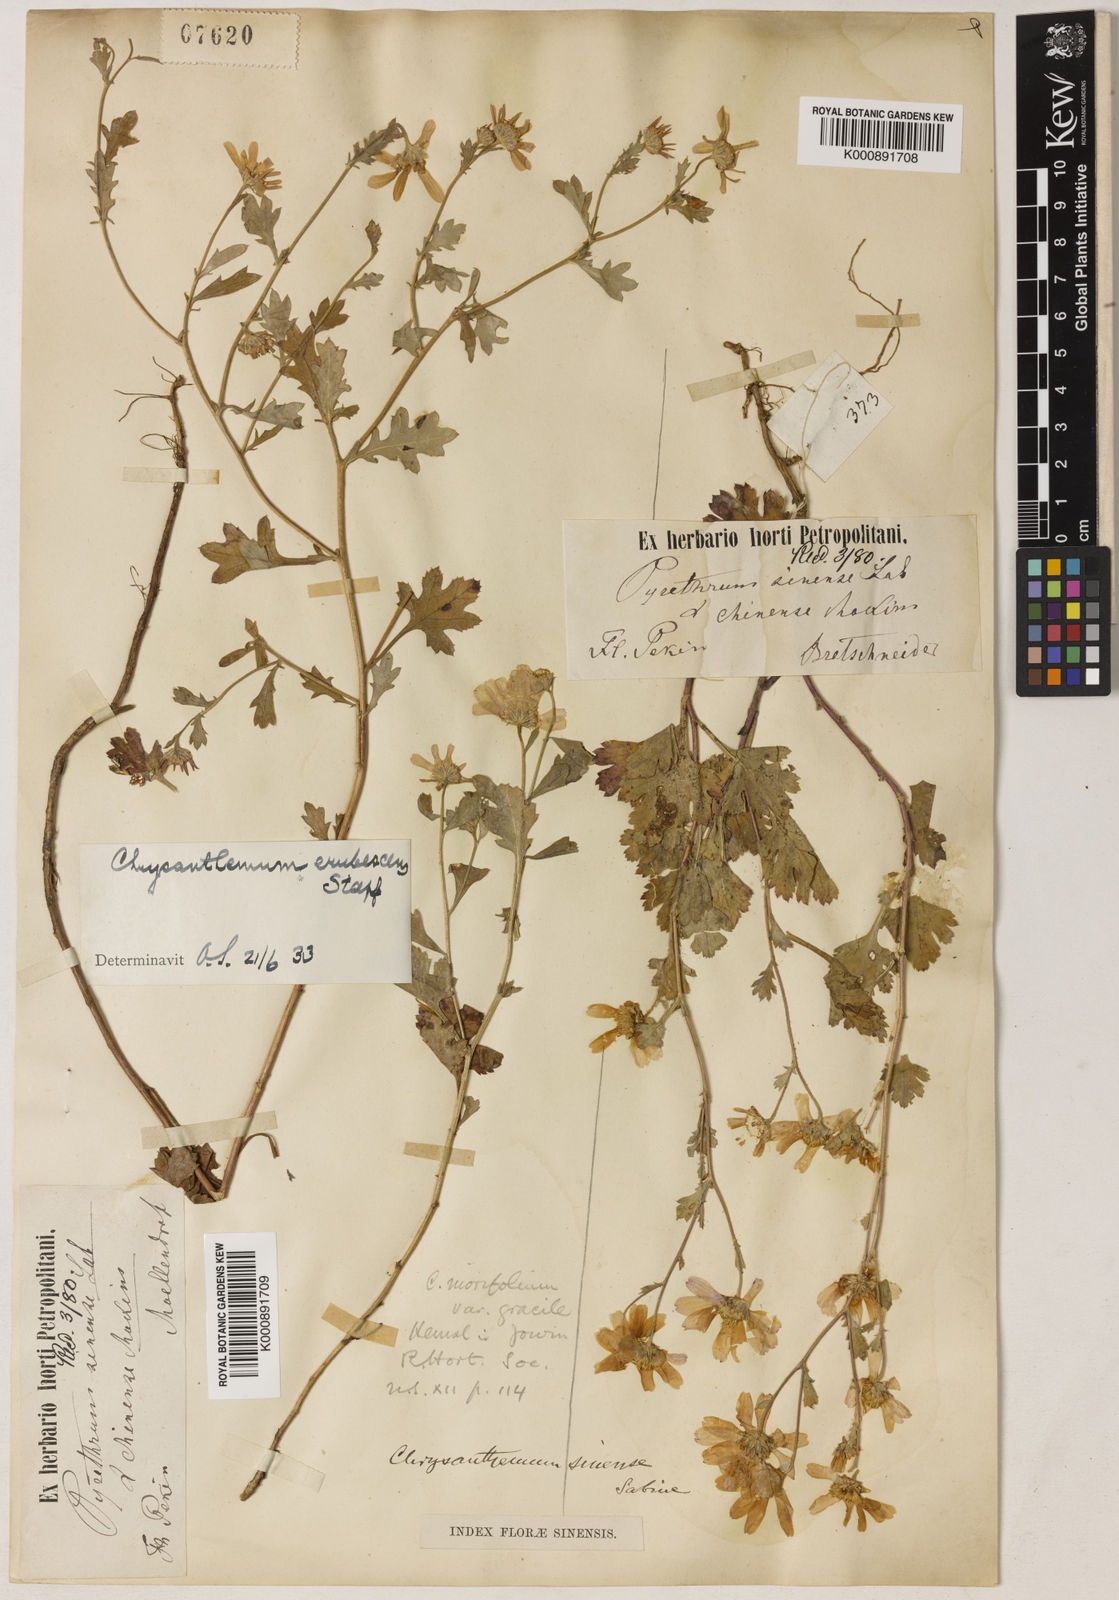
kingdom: Plantae
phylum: Tracheophyta
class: Magnoliopsida
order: Asterales
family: Asteraceae
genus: Chrysanthemum
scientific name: Chrysanthemum chanetii
